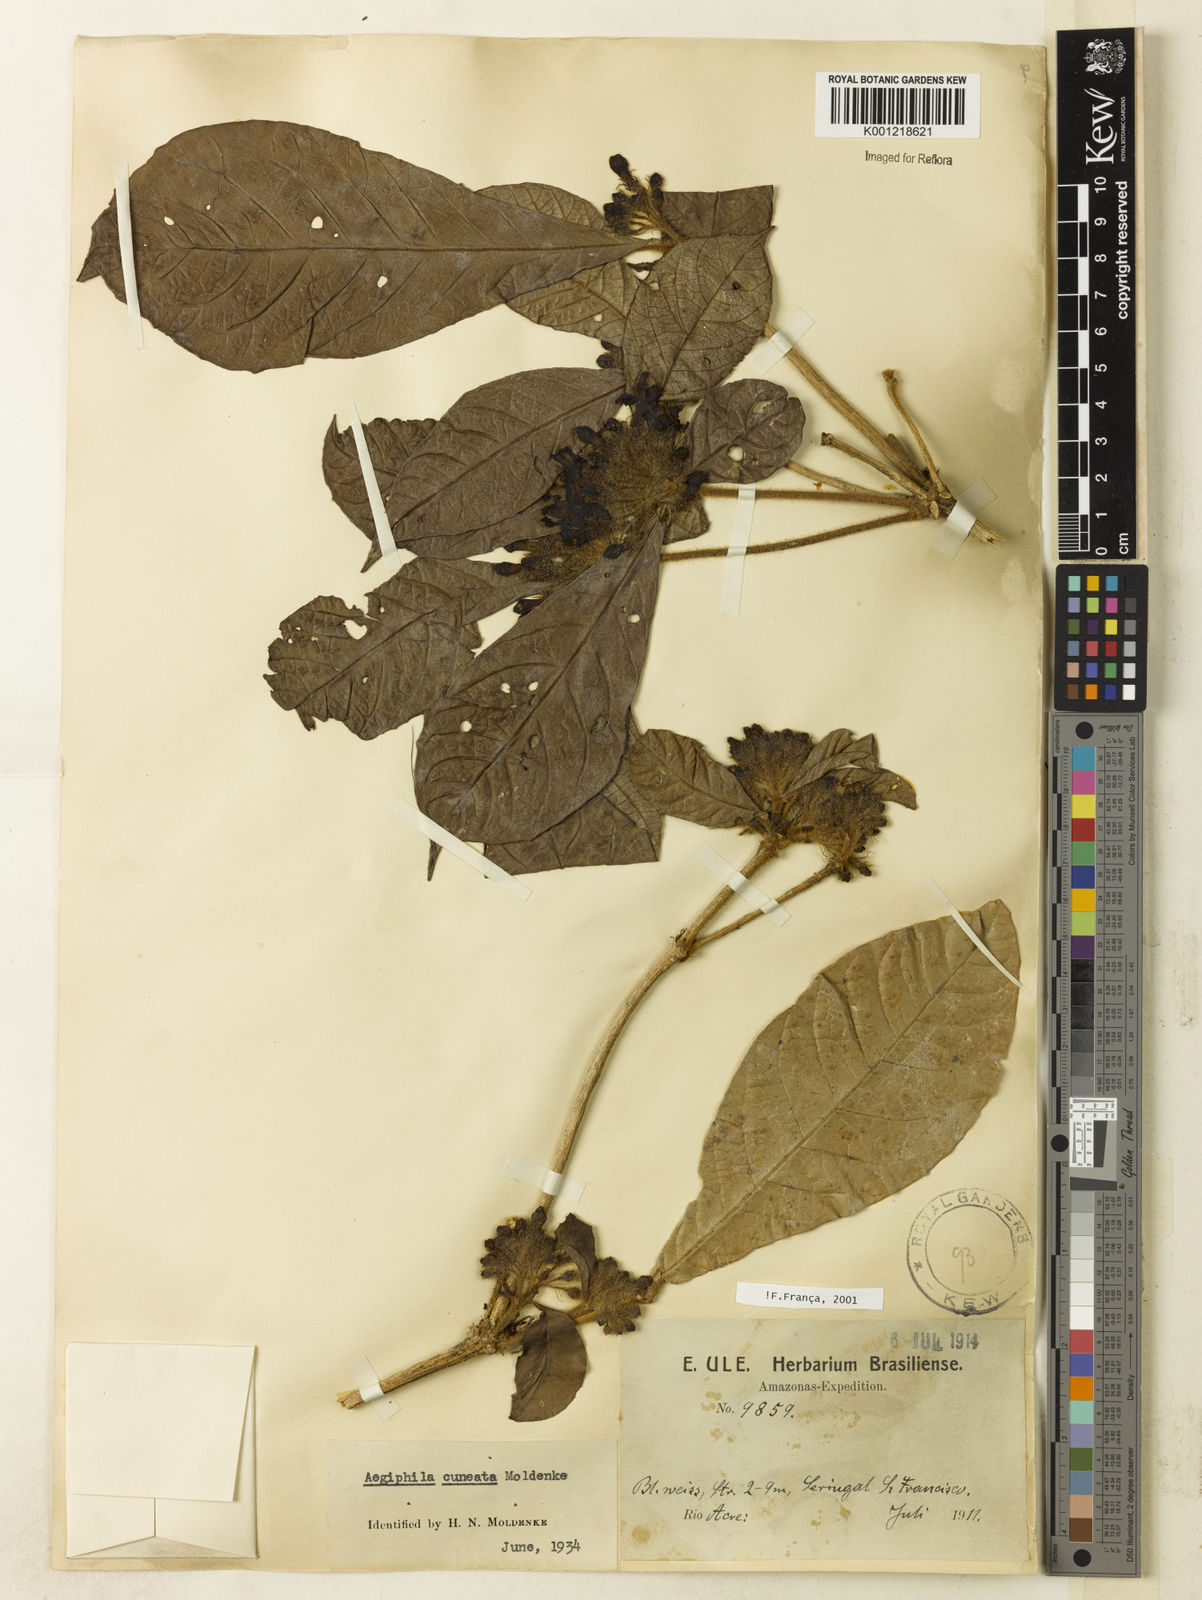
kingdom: Plantae
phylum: Tracheophyta
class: Magnoliopsida
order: Lamiales
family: Lamiaceae
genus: Aegiphila
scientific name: Aegiphila cuneata
